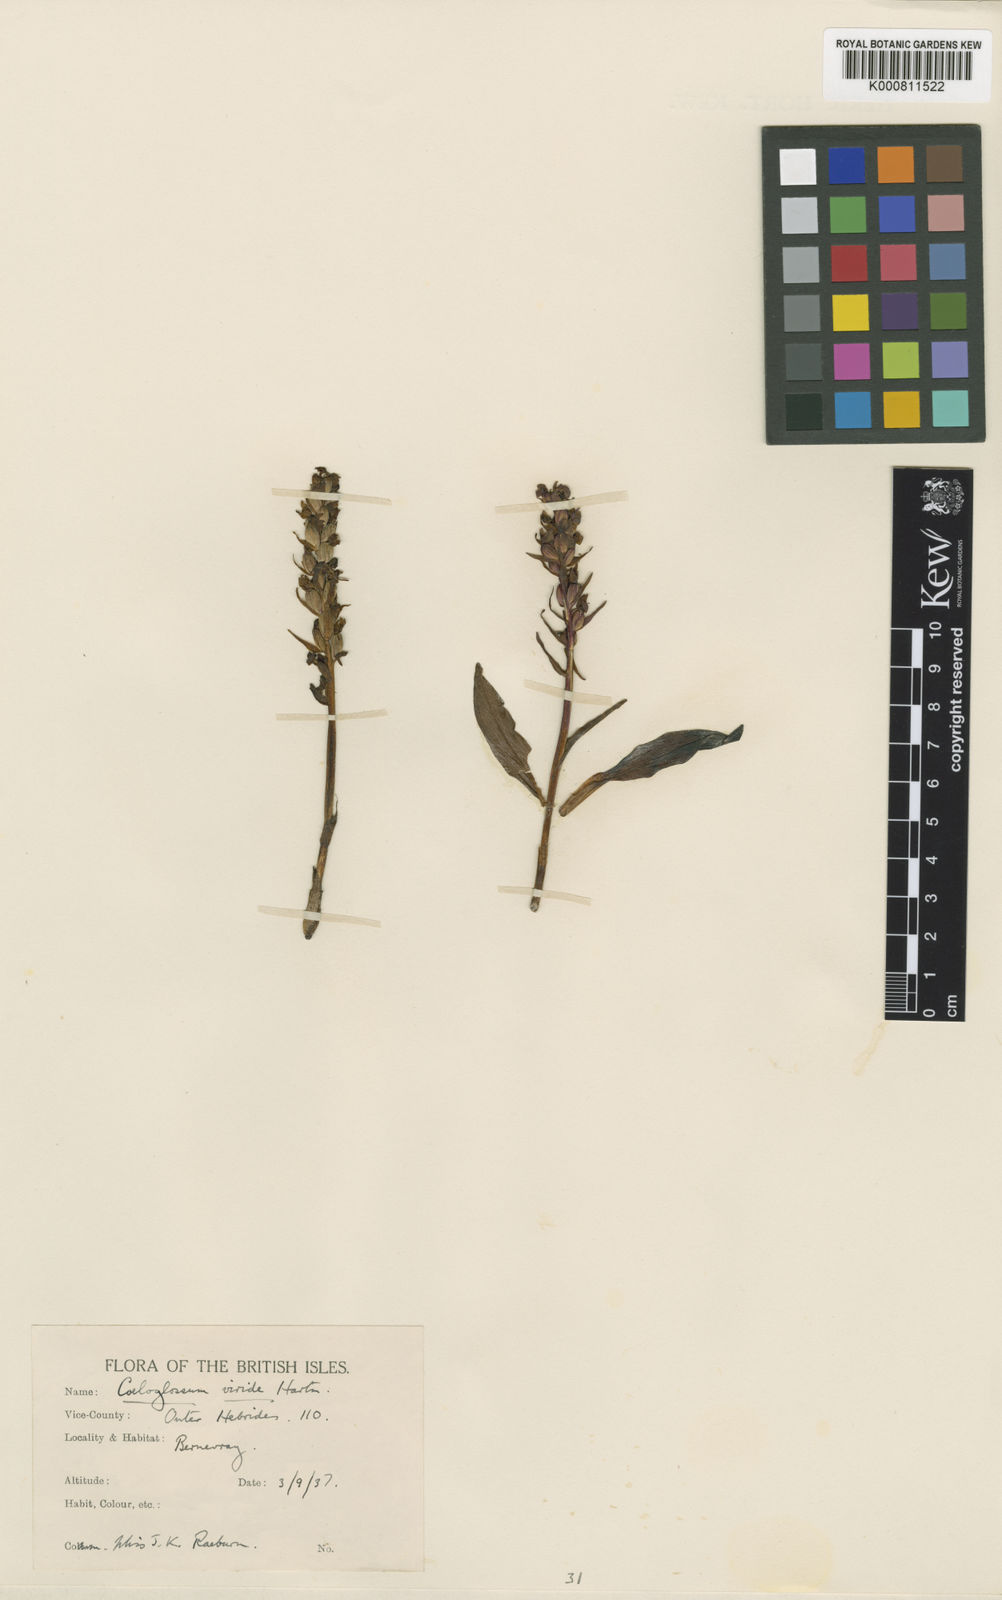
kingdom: Plantae
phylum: Tracheophyta
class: Liliopsida
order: Asparagales
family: Orchidaceae
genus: Dactylorhiza
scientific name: Dactylorhiza viridis
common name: Longbract frog orchid
